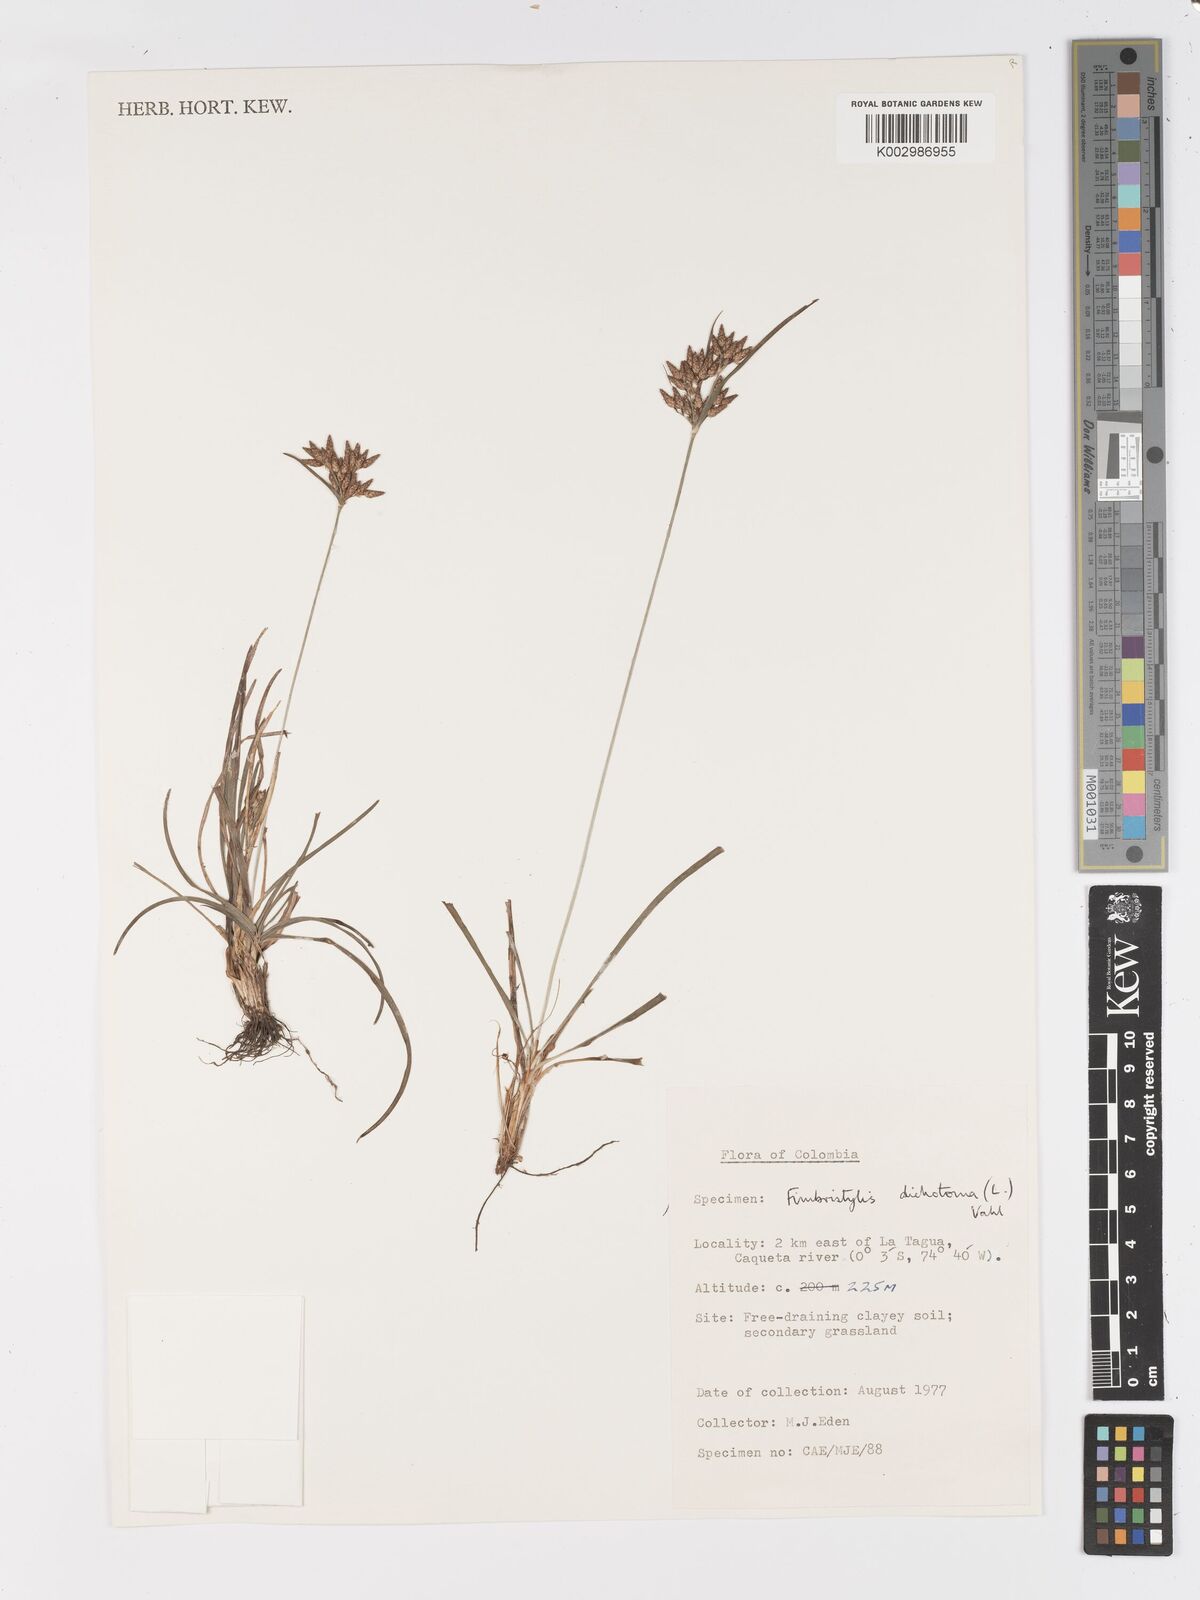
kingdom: Plantae
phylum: Tracheophyta
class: Liliopsida
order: Poales
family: Cyperaceae
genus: Fimbristylis
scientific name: Fimbristylis dichotoma
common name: Forked fimbry
